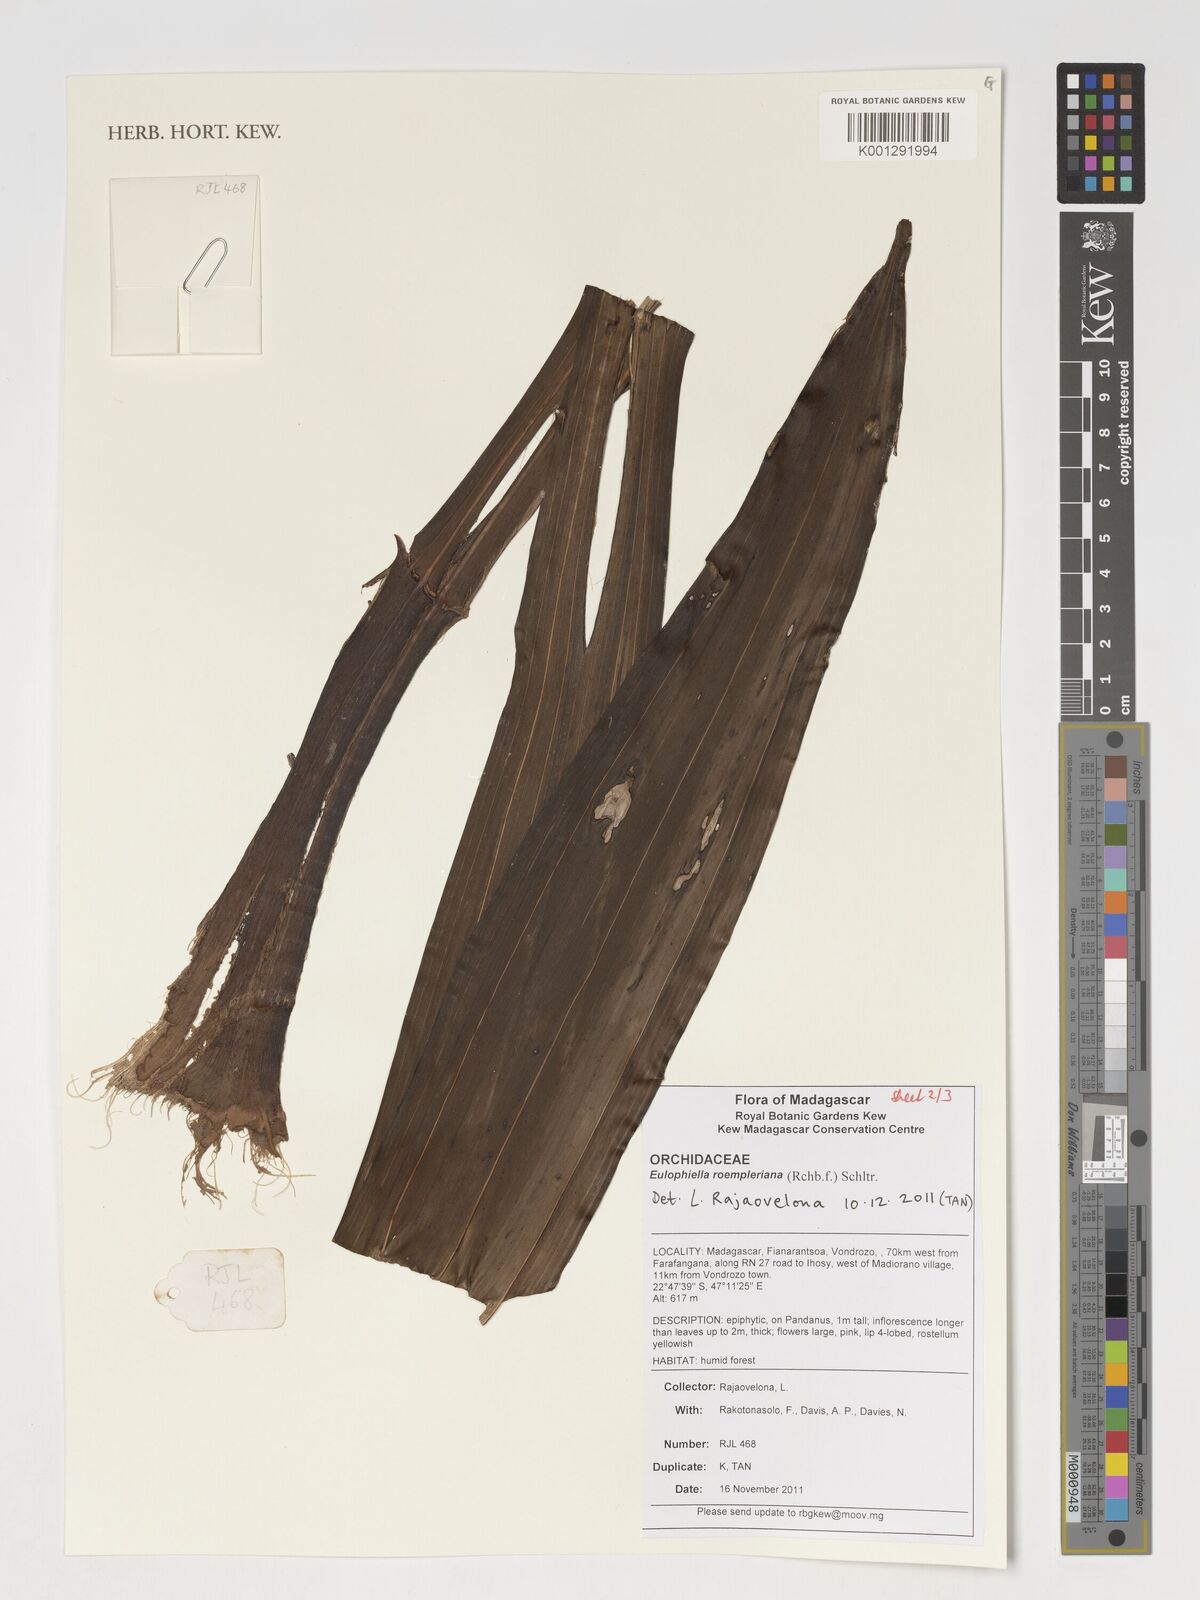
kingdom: Plantae
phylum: Tracheophyta
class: Liliopsida
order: Asparagales
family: Orchidaceae
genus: Eulophia
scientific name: Eulophia roempleriana
